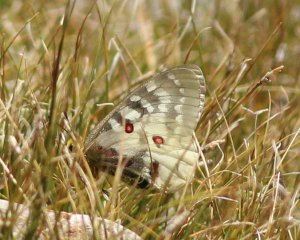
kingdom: Animalia
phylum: Arthropoda
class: Insecta
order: Lepidoptera
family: Papilionidae
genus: Parnassius
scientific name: Parnassius clodius
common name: Clodius Parnassian
